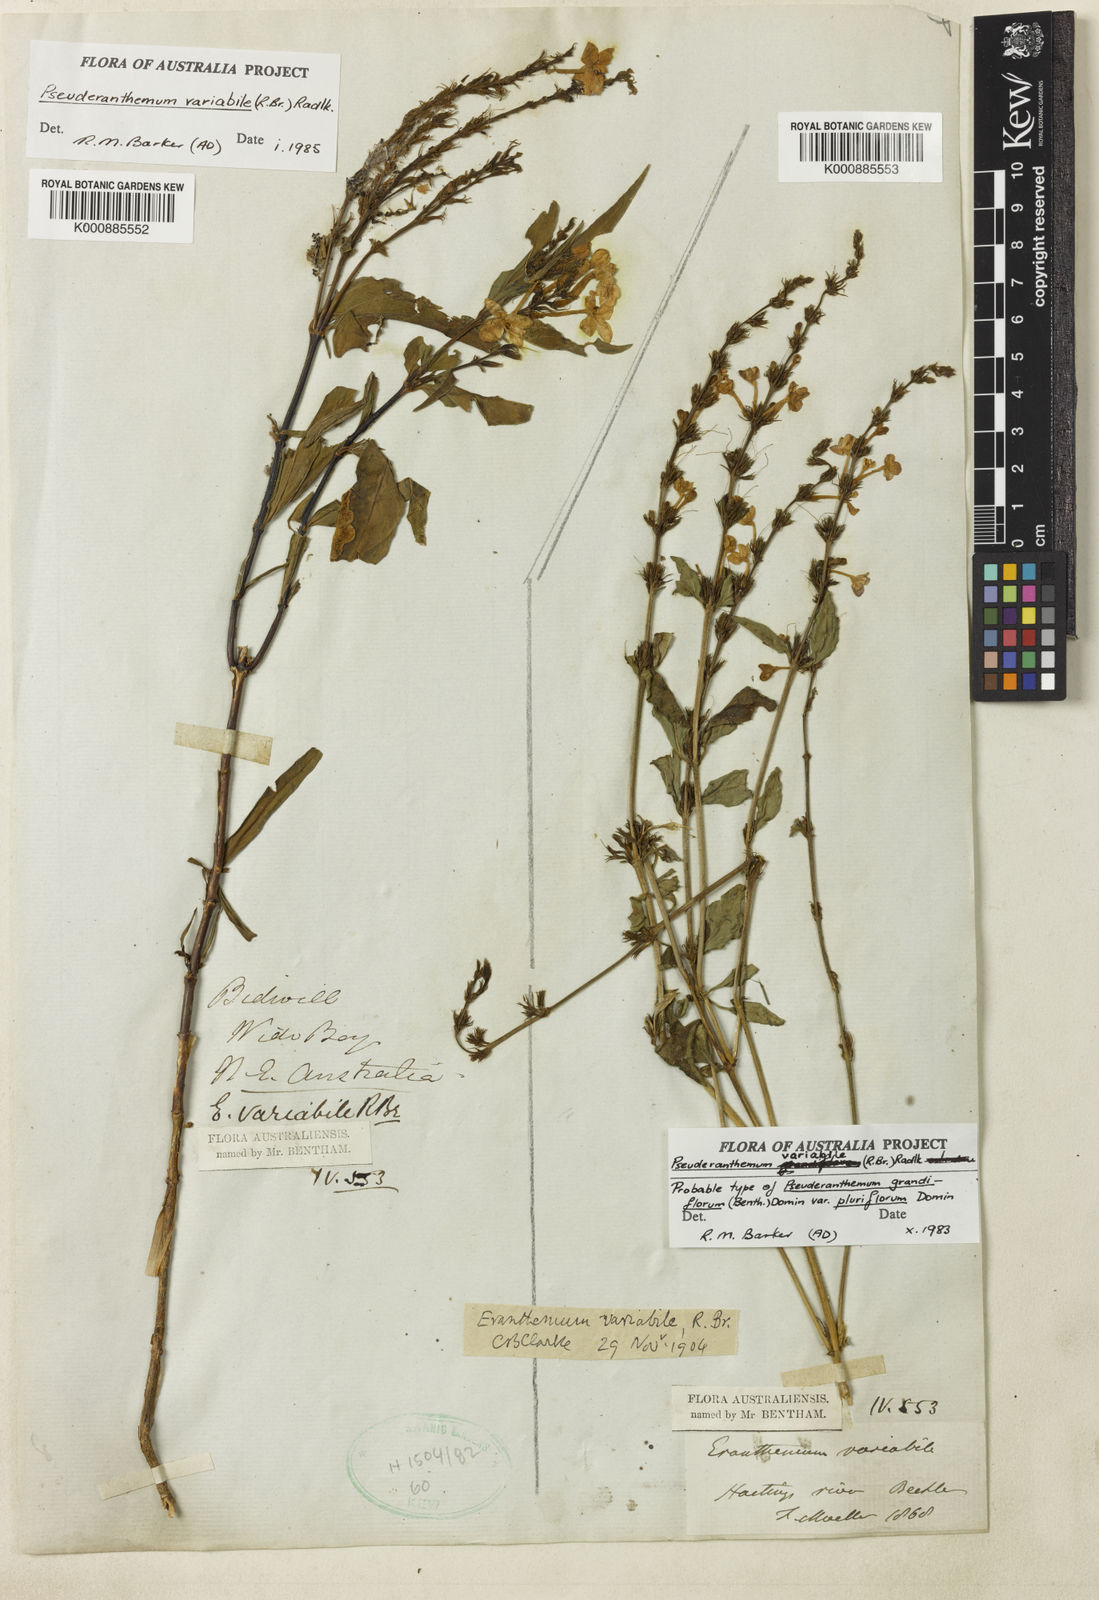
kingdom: Plantae
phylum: Tracheophyta
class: Magnoliopsida
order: Lamiales
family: Acanthaceae
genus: Pseuderanthemum
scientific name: Pseuderanthemum variabile
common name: Night and afternoon
